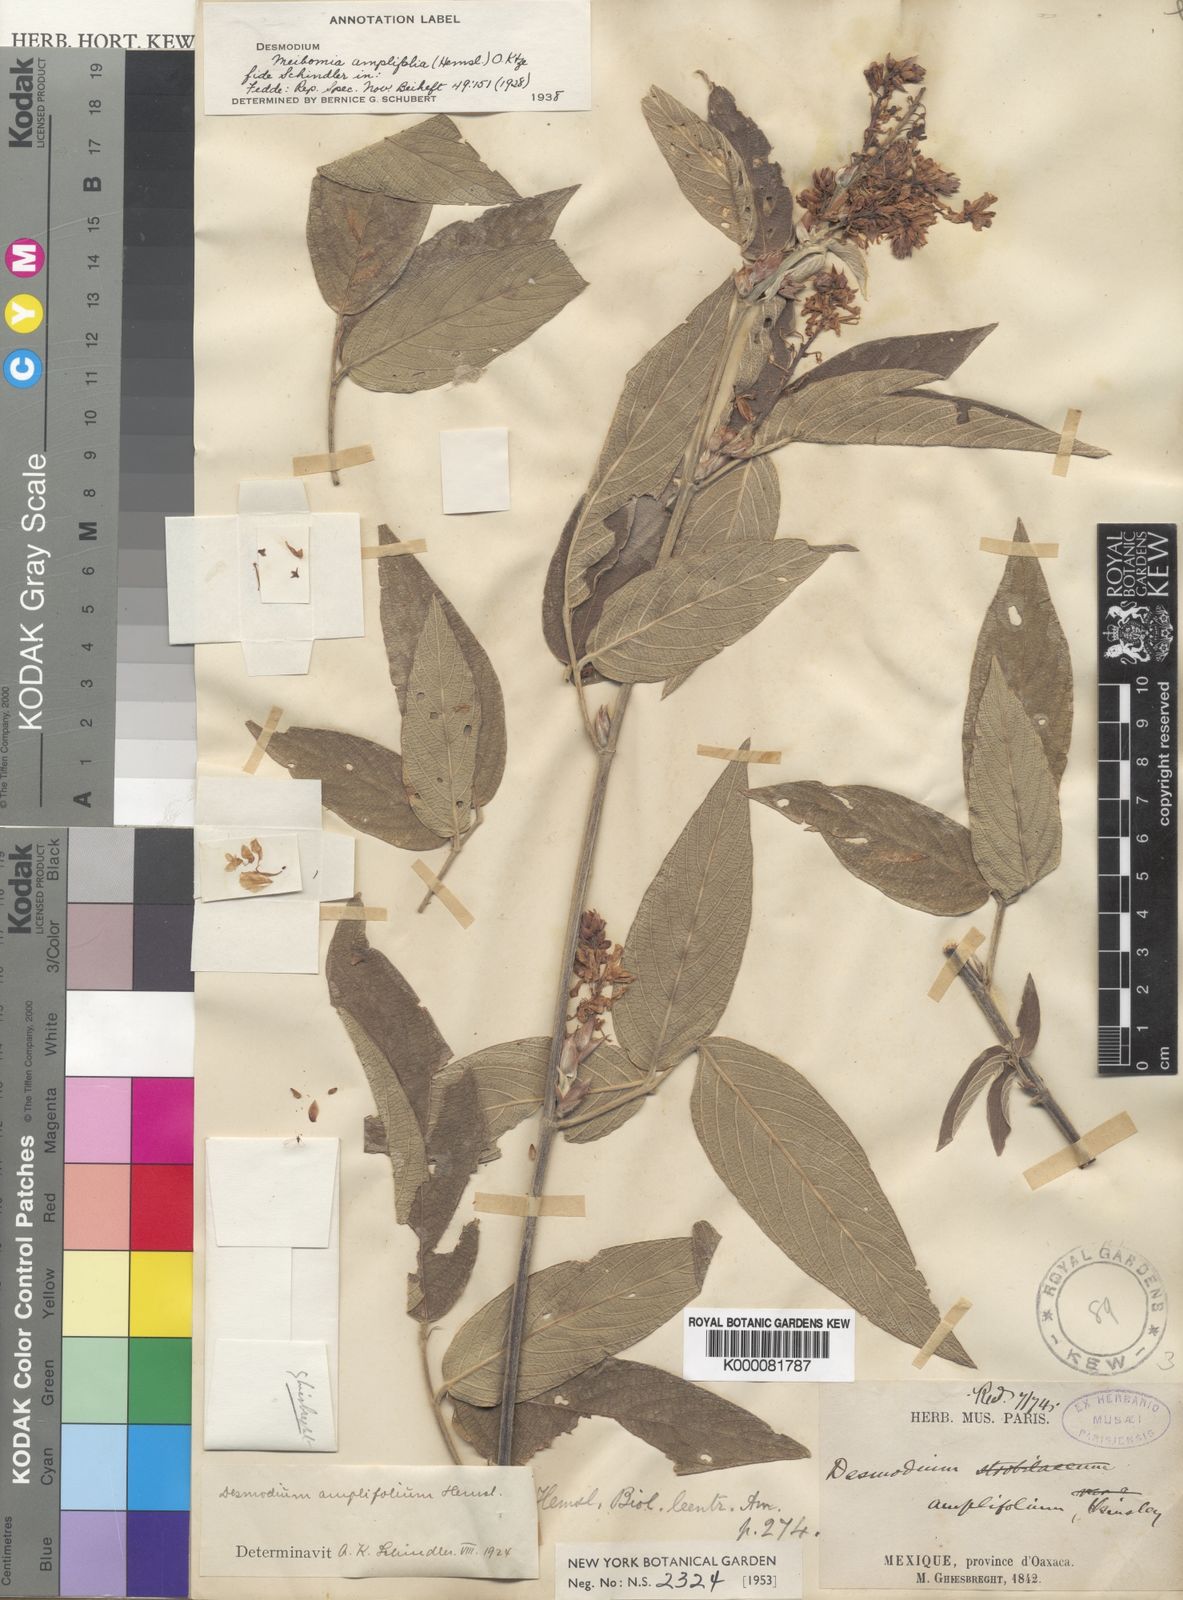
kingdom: Plantae
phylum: Tracheophyta
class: Magnoliopsida
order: Fabales
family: Fabaceae
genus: Desmodium
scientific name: Desmodium amplifolium
